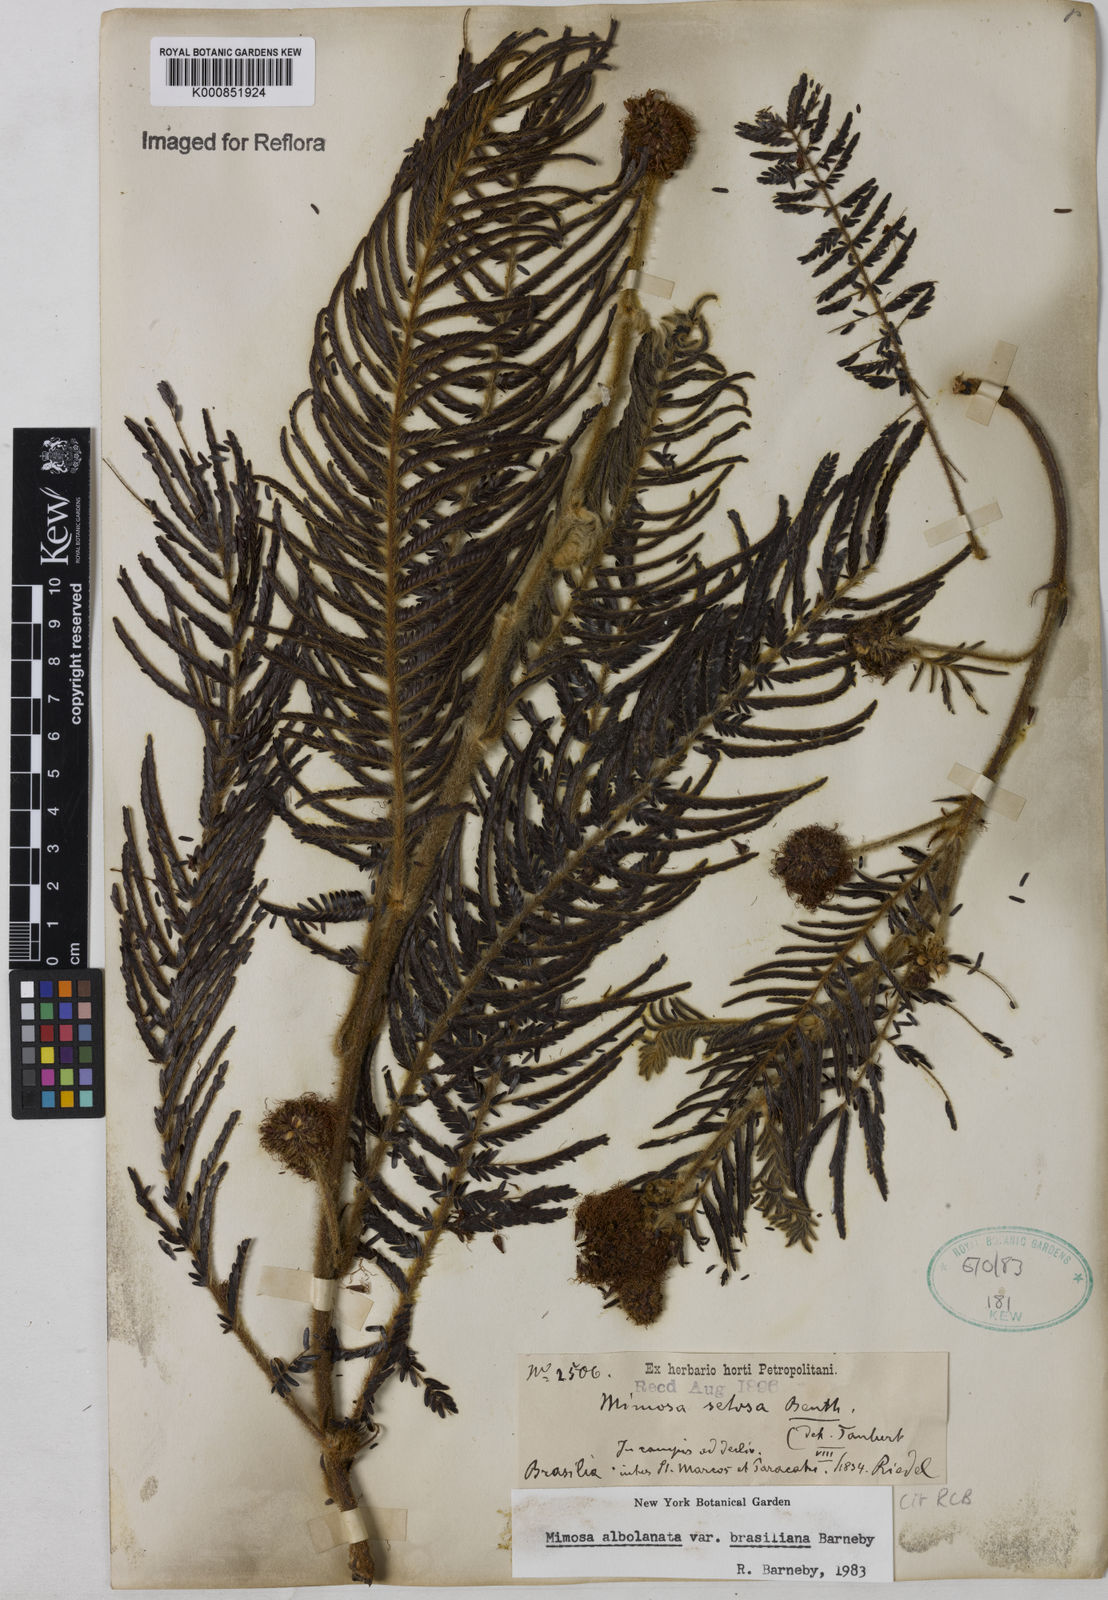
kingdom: Plantae
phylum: Tracheophyta
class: Magnoliopsida
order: Fabales
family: Fabaceae
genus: Mimosa
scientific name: Mimosa albolanata
